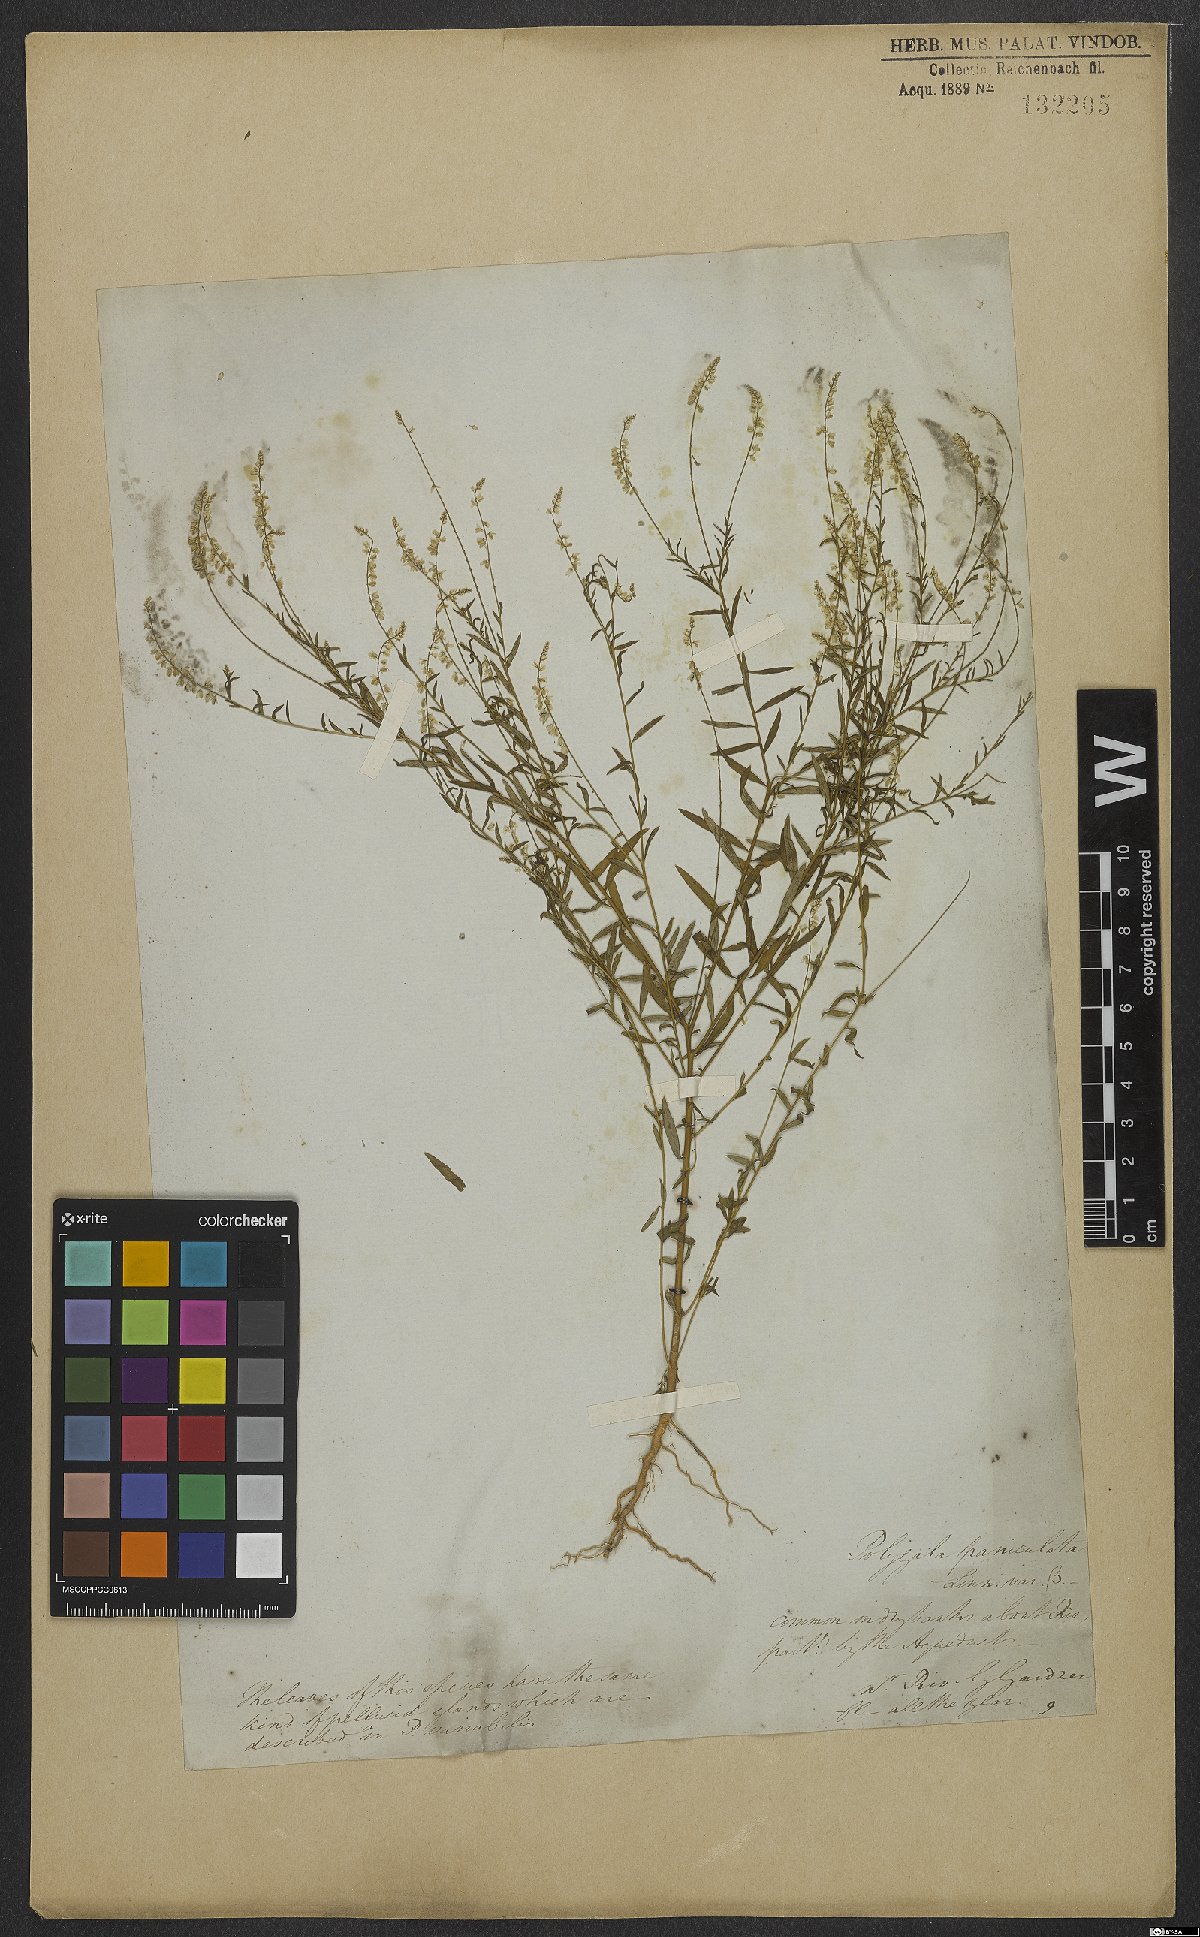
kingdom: Plantae
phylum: Tracheophyta
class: Magnoliopsida
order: Fabales
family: Polygalaceae
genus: Polygala
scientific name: Polygala exilis
